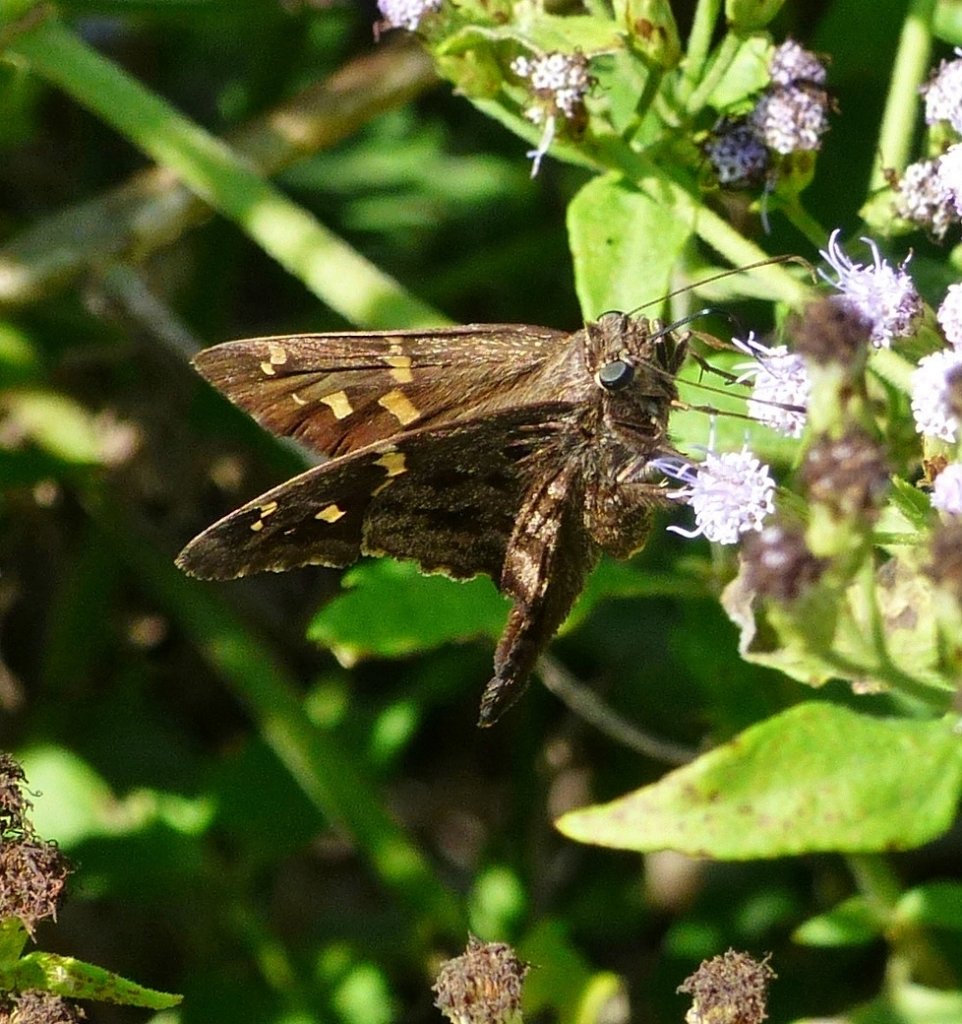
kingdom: Animalia
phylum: Arthropoda
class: Insecta
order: Lepidoptera
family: Hesperiidae
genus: Urbanus
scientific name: Urbanus dorantes
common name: Dorantes Longtail
